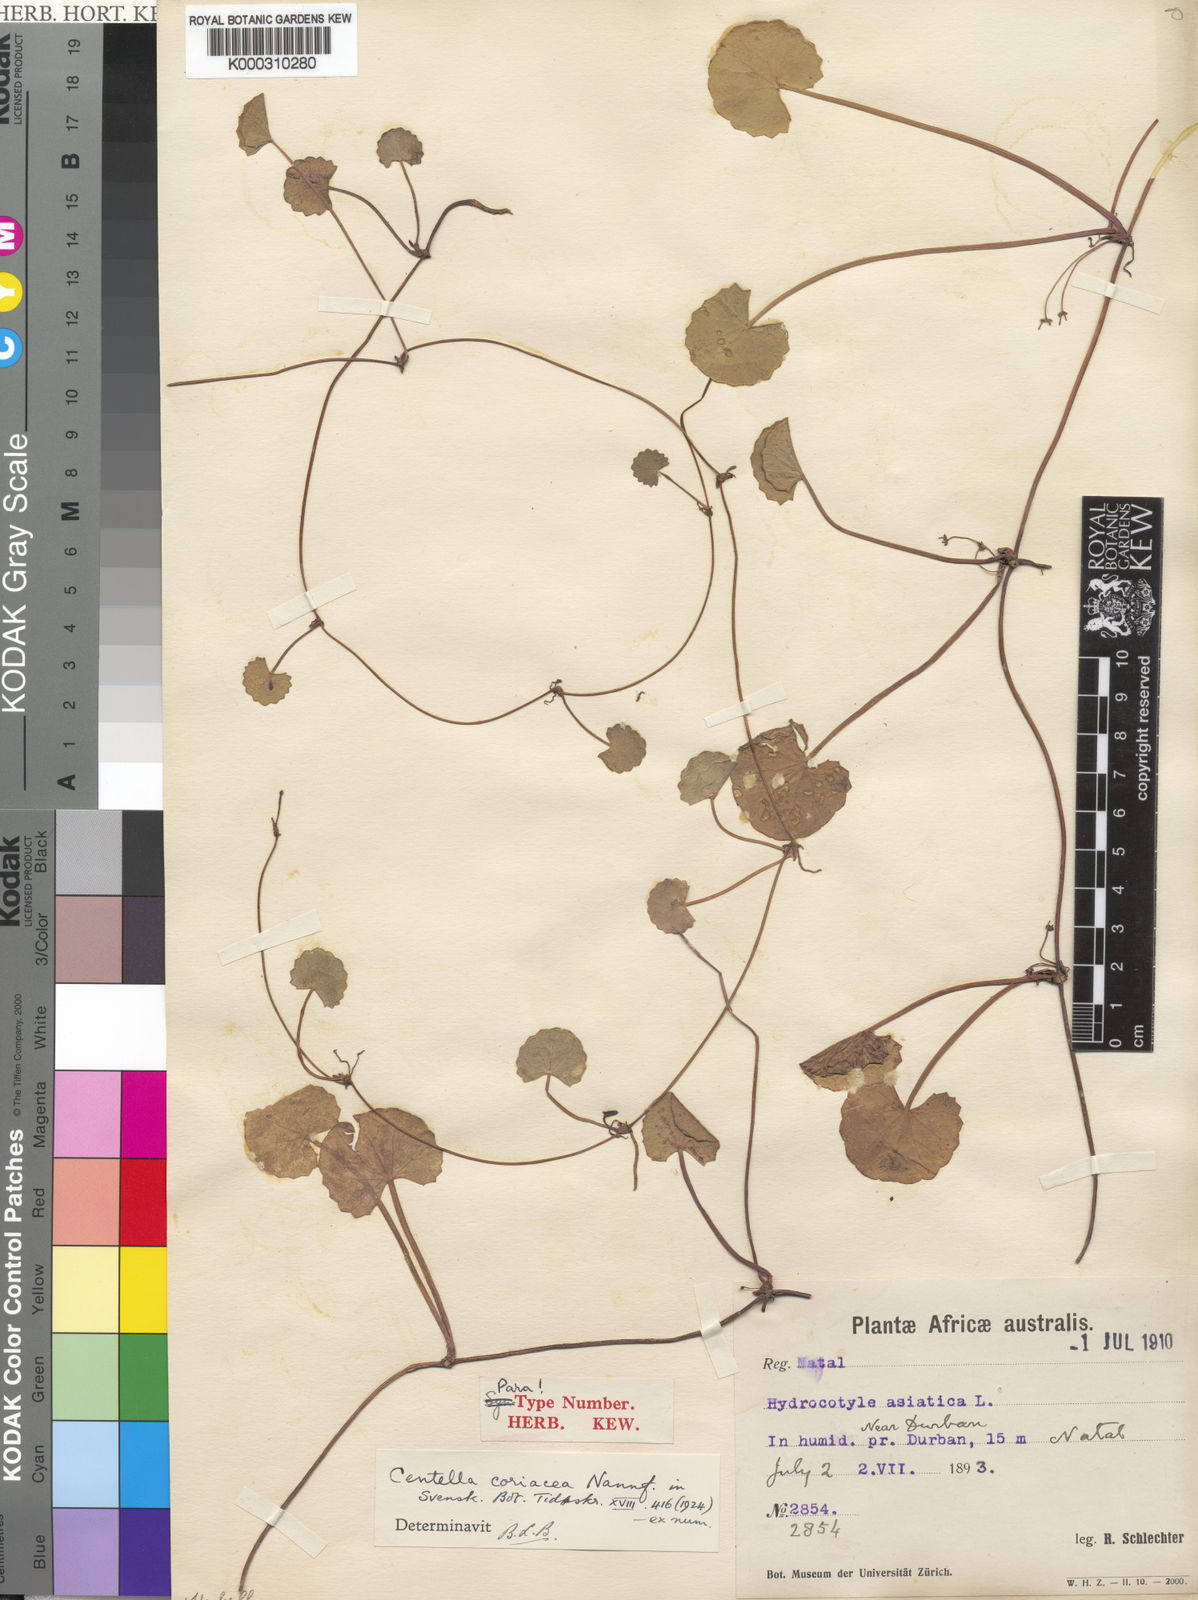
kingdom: Plantae
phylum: Tracheophyta
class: Magnoliopsida
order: Apiales
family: Apiaceae
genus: Centella
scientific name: Centella coriacea
